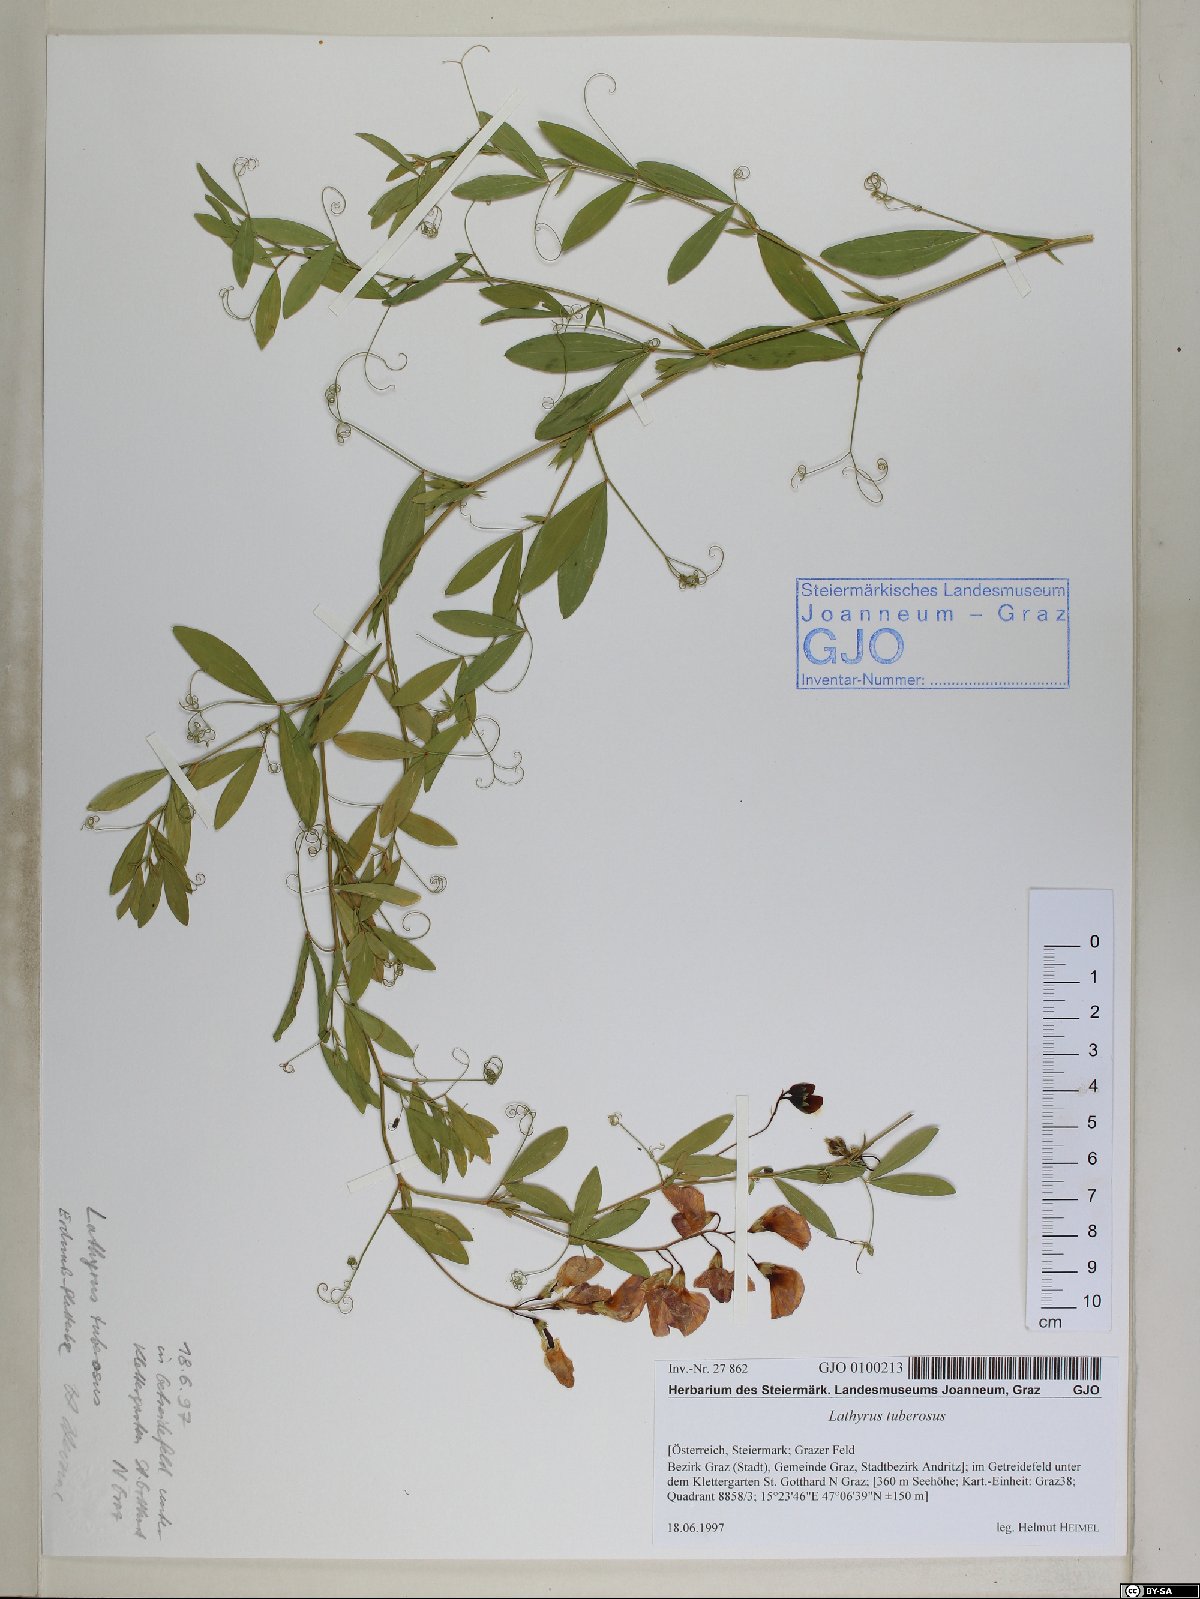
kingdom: Plantae
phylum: Tracheophyta
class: Magnoliopsida
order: Fabales
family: Fabaceae
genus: Lathyrus
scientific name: Lathyrus tuberosus
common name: Tuberous pea
